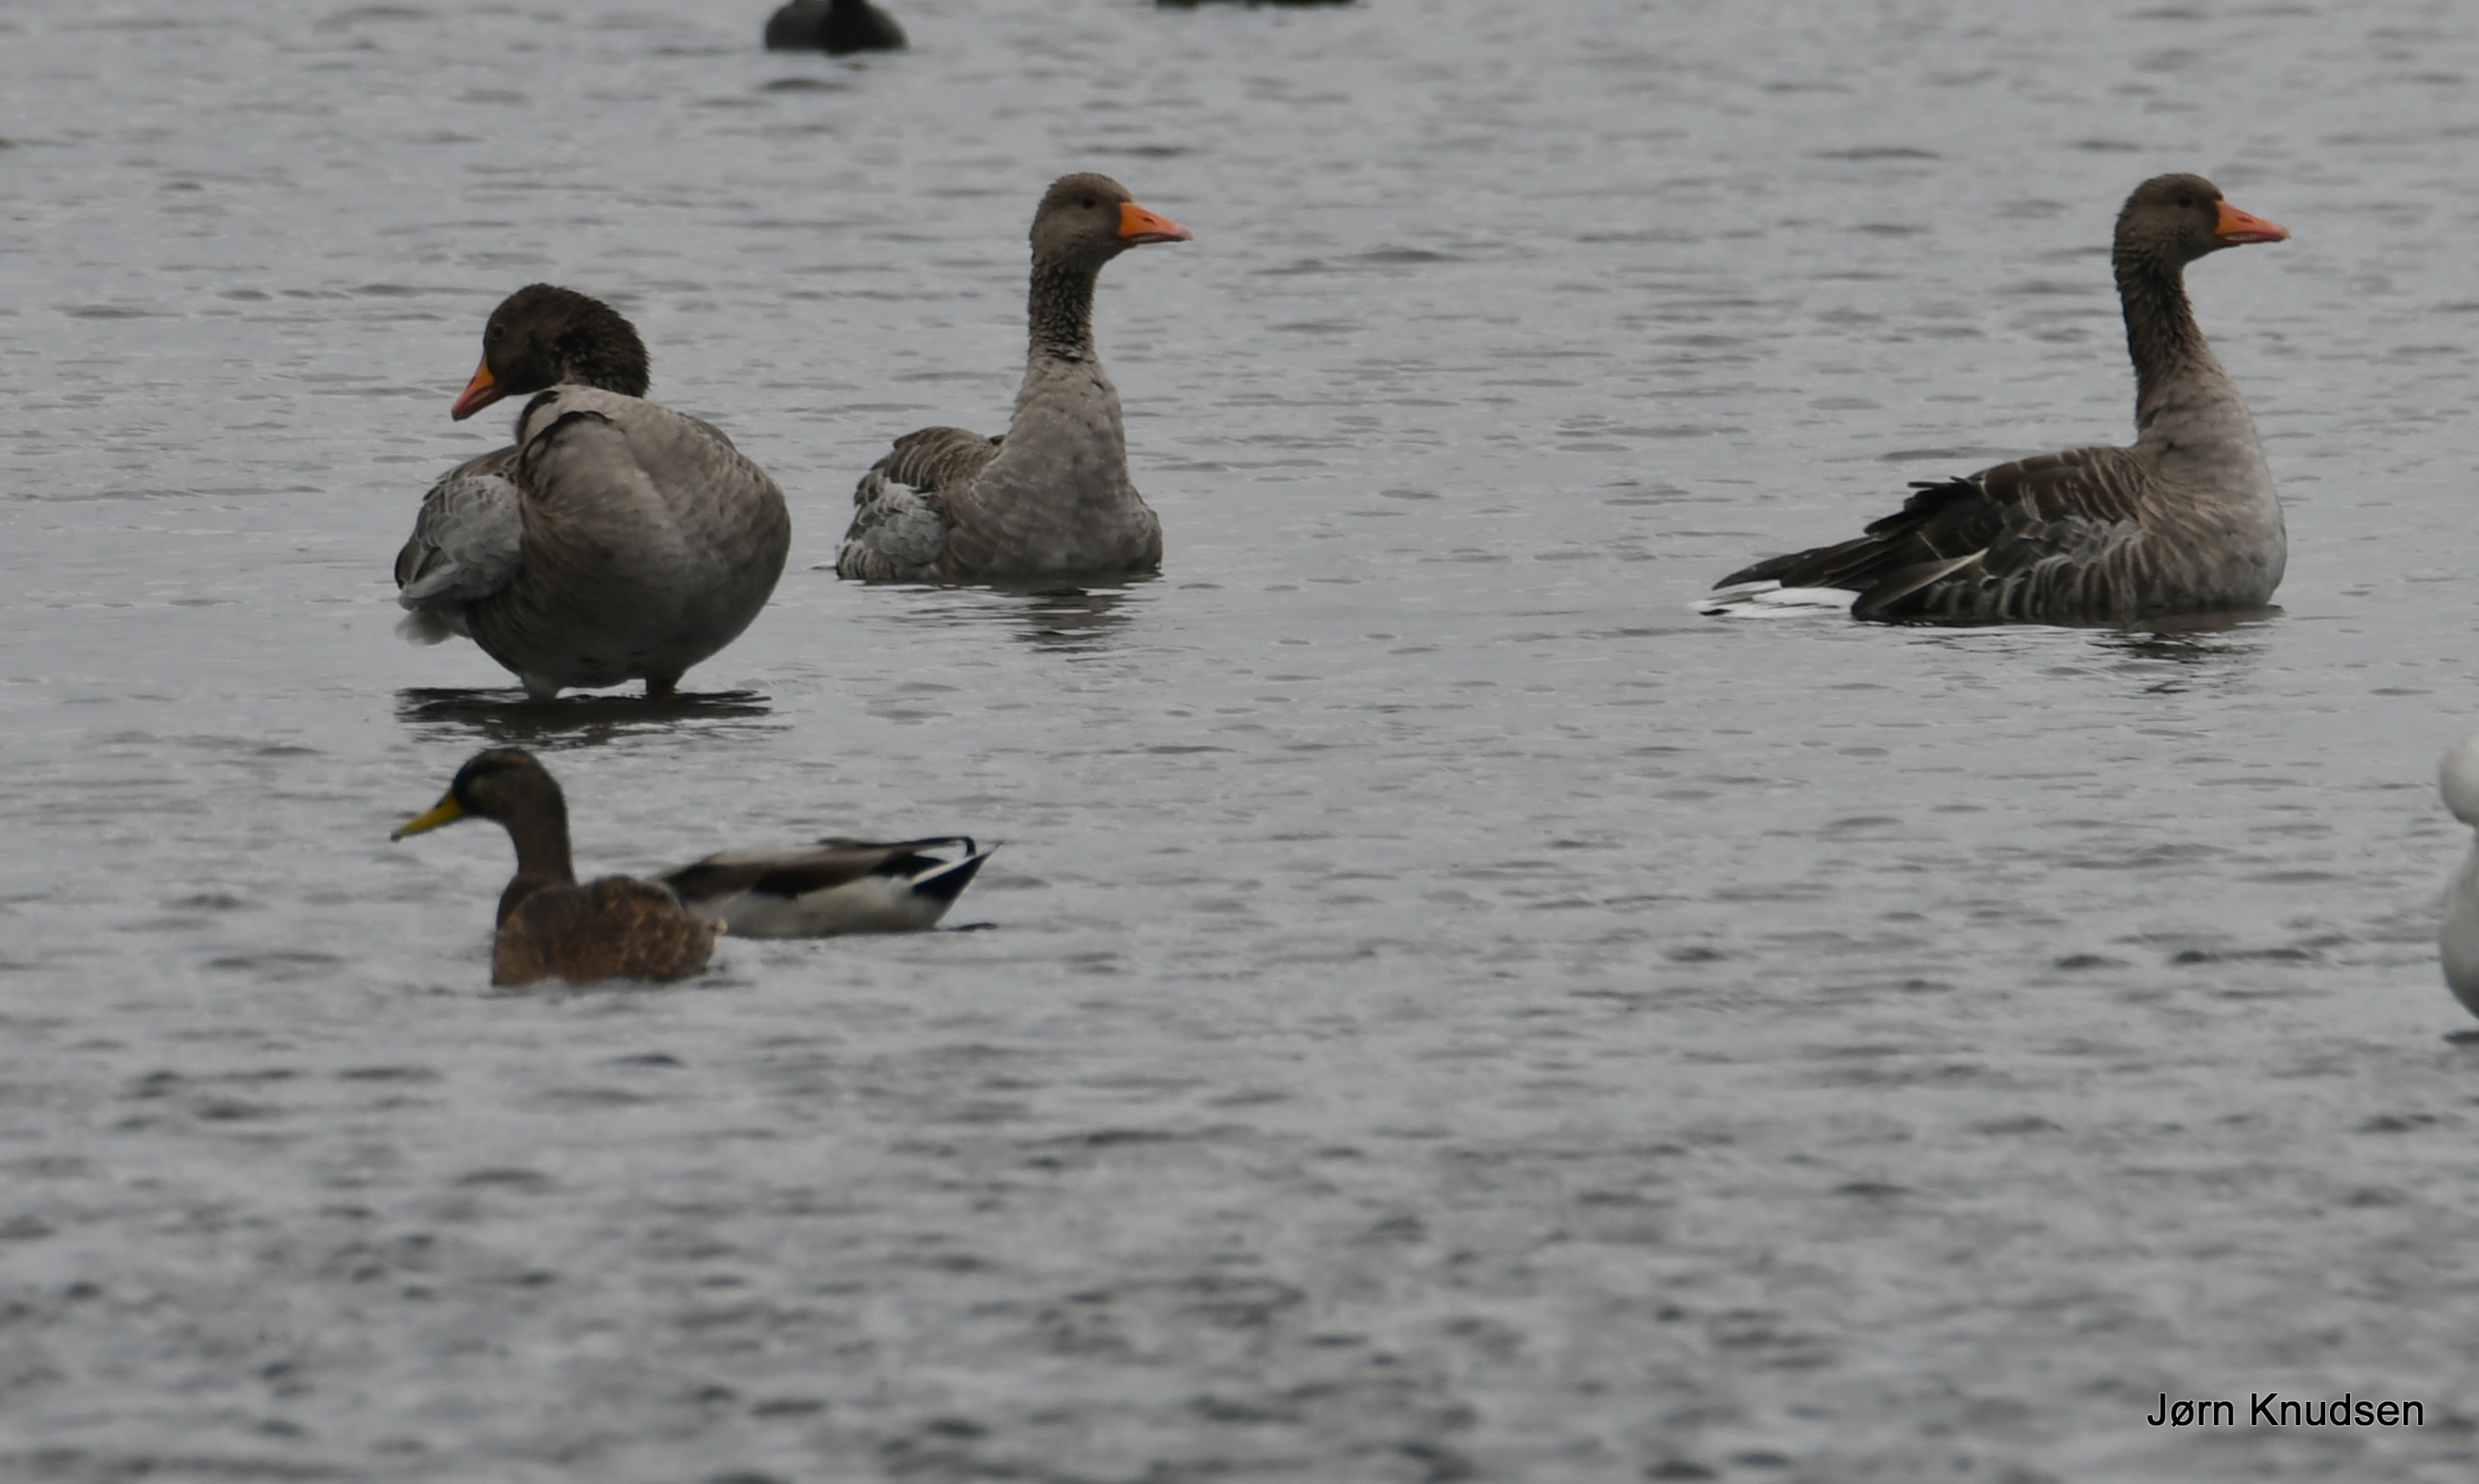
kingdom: Animalia
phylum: Chordata
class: Aves
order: Anseriformes
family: Anatidae
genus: Anser
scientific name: Anser anser
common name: Grågås
